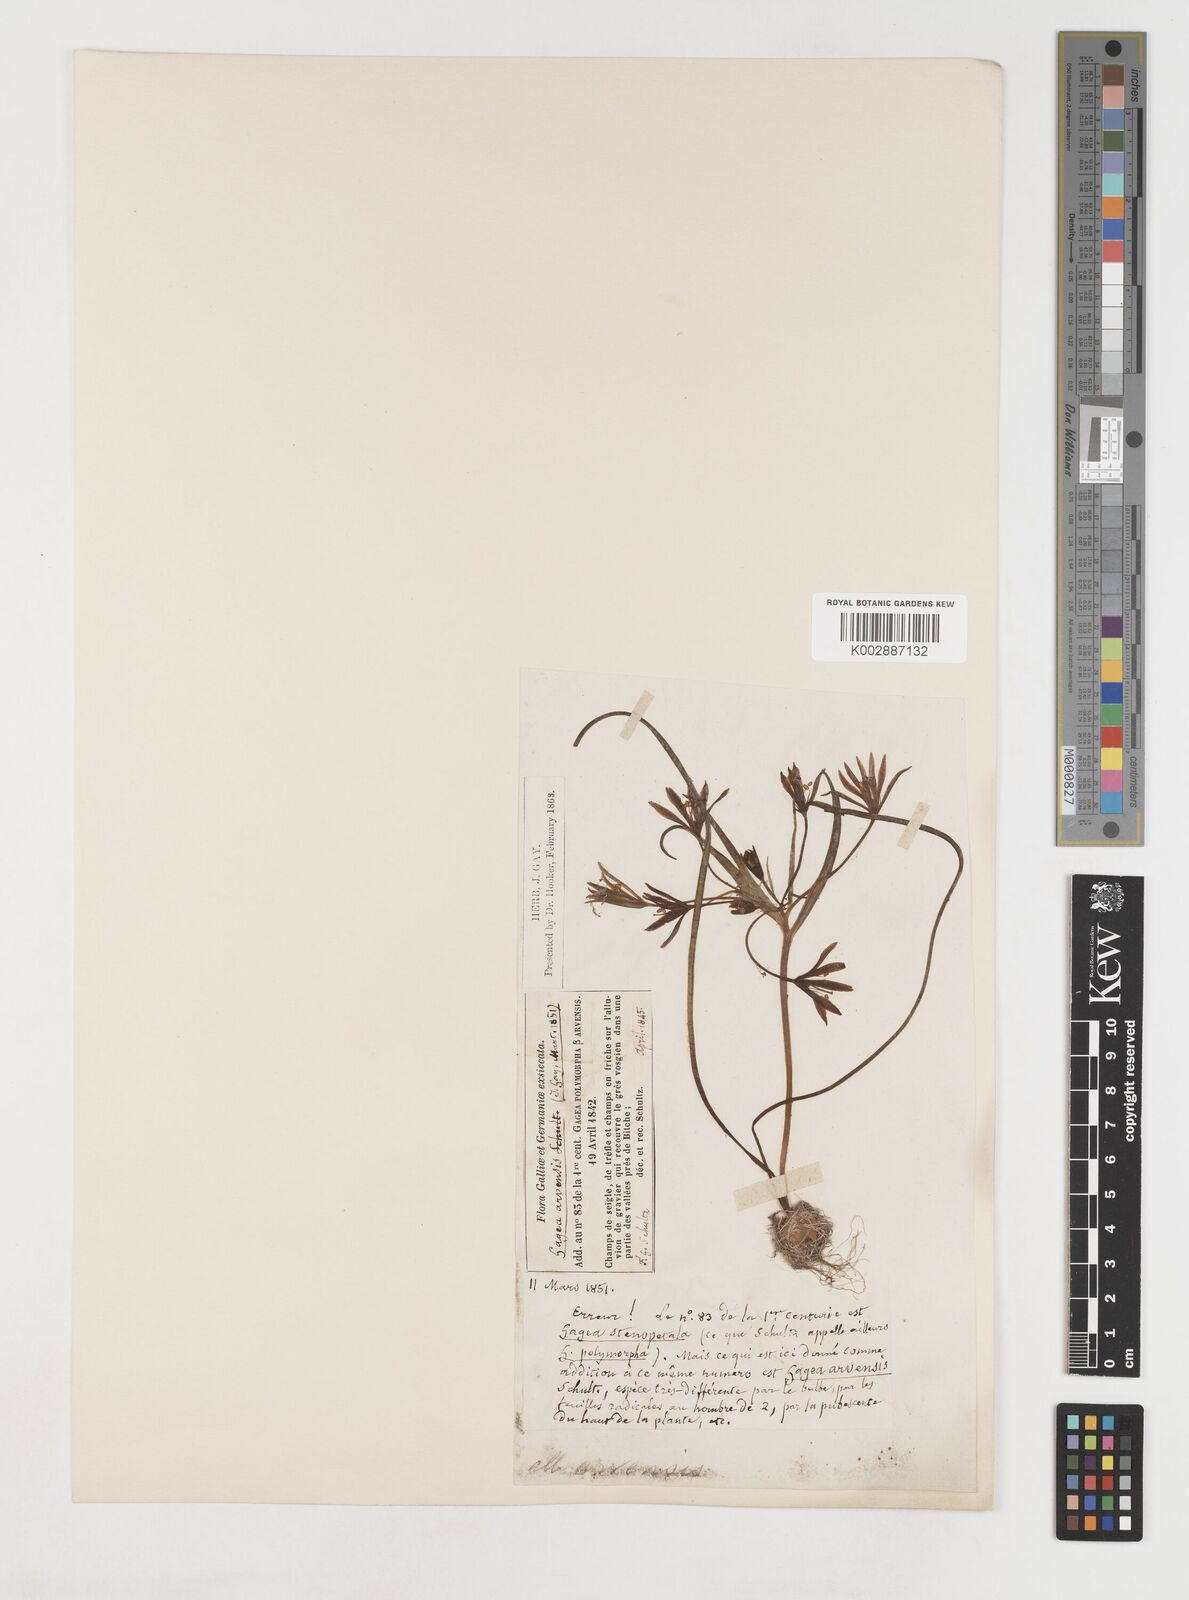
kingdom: Plantae
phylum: Tracheophyta
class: Liliopsida
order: Liliales
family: Liliaceae
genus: Gagea
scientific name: Gagea minima
